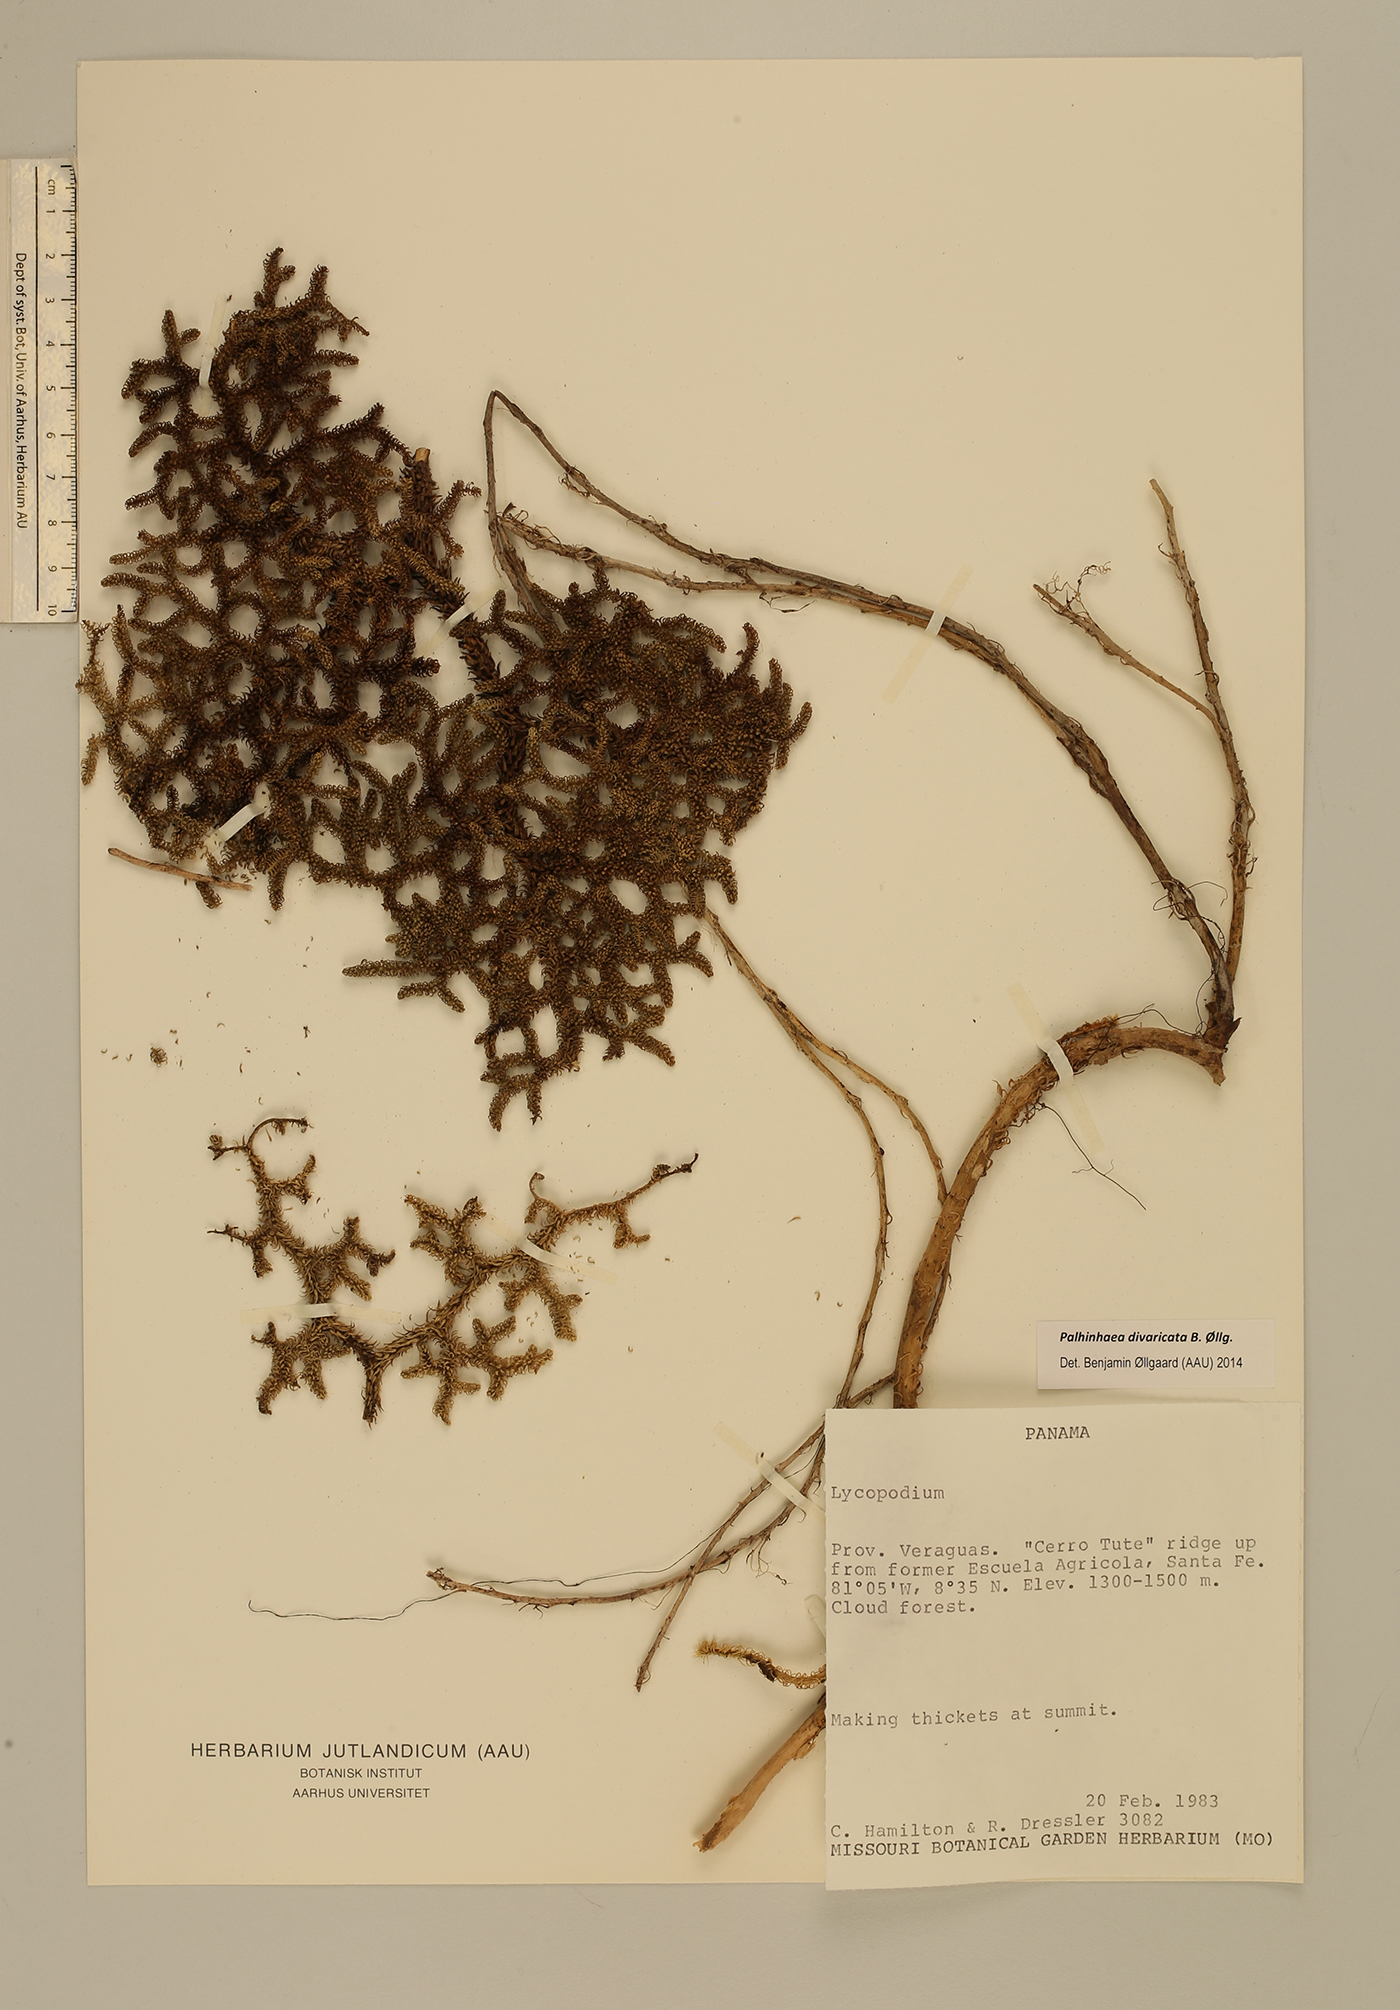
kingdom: Plantae
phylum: Tracheophyta
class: Lycopodiopsida
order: Lycopodiales
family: Lycopodiaceae
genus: Palhinhaea
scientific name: Palhinhaea divaricata
